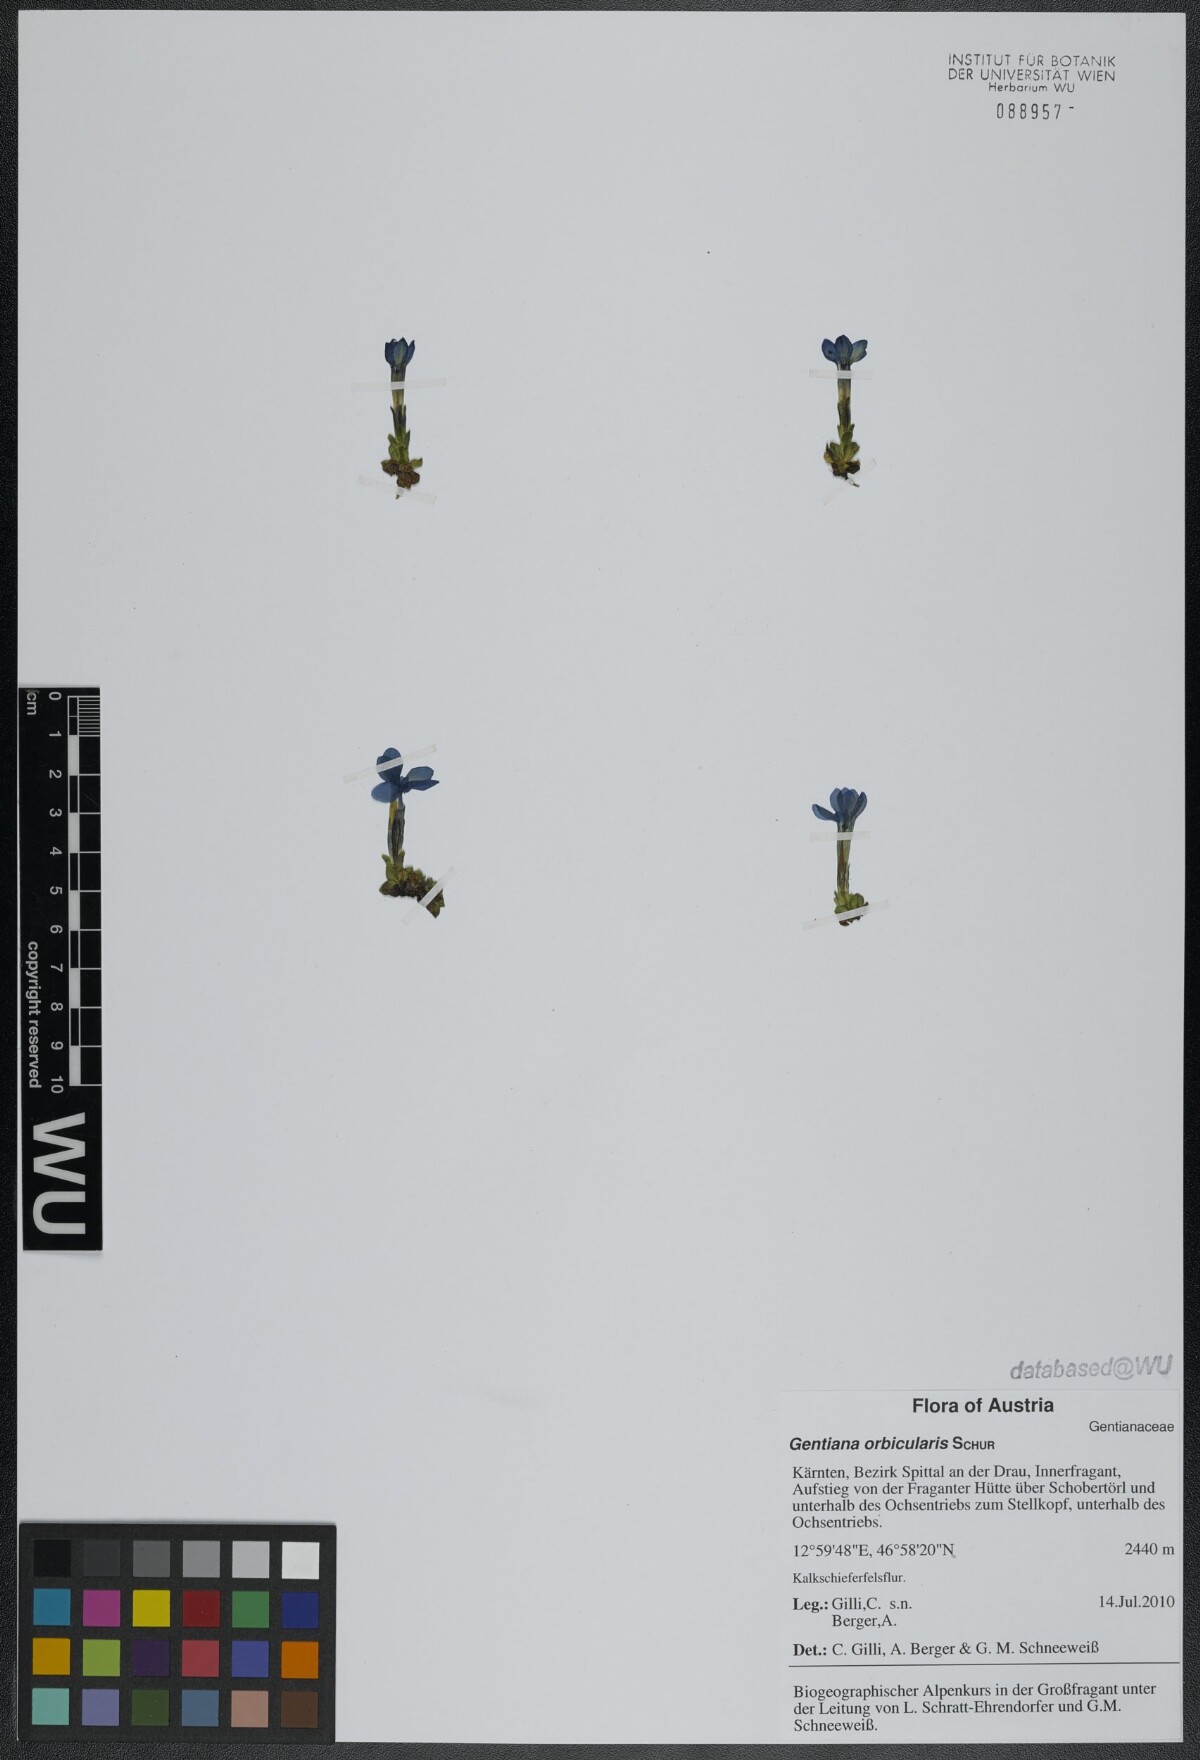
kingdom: Plantae
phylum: Tracheophyta
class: Magnoliopsida
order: Gentianales
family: Gentianaceae
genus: Gentiana
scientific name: Gentiana orbicularis
